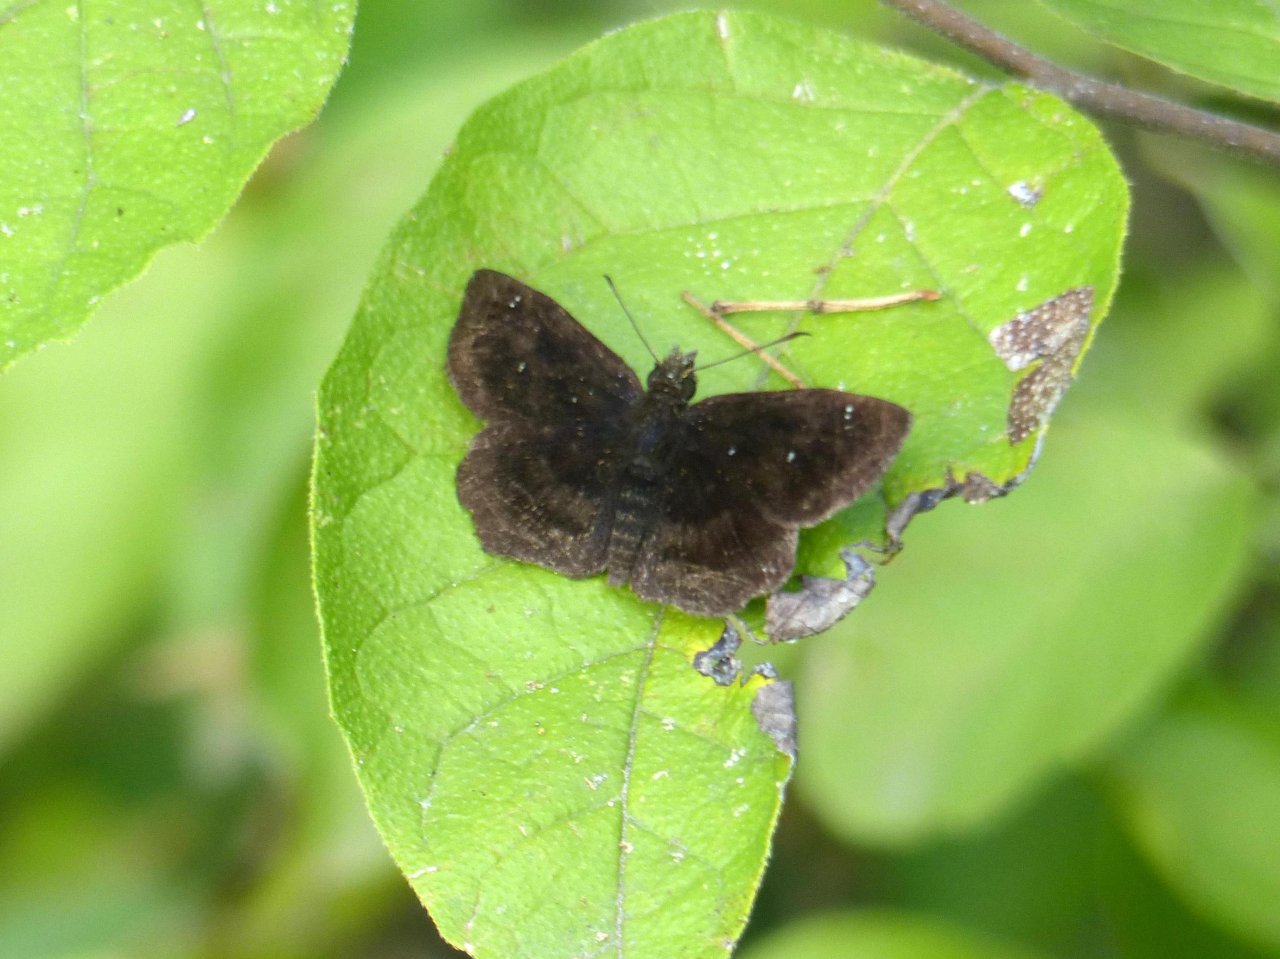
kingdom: Animalia
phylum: Arthropoda
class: Insecta
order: Lepidoptera
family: Hesperiidae
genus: Staphylus
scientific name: Staphylus mazans
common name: Mazans Scallopwing
